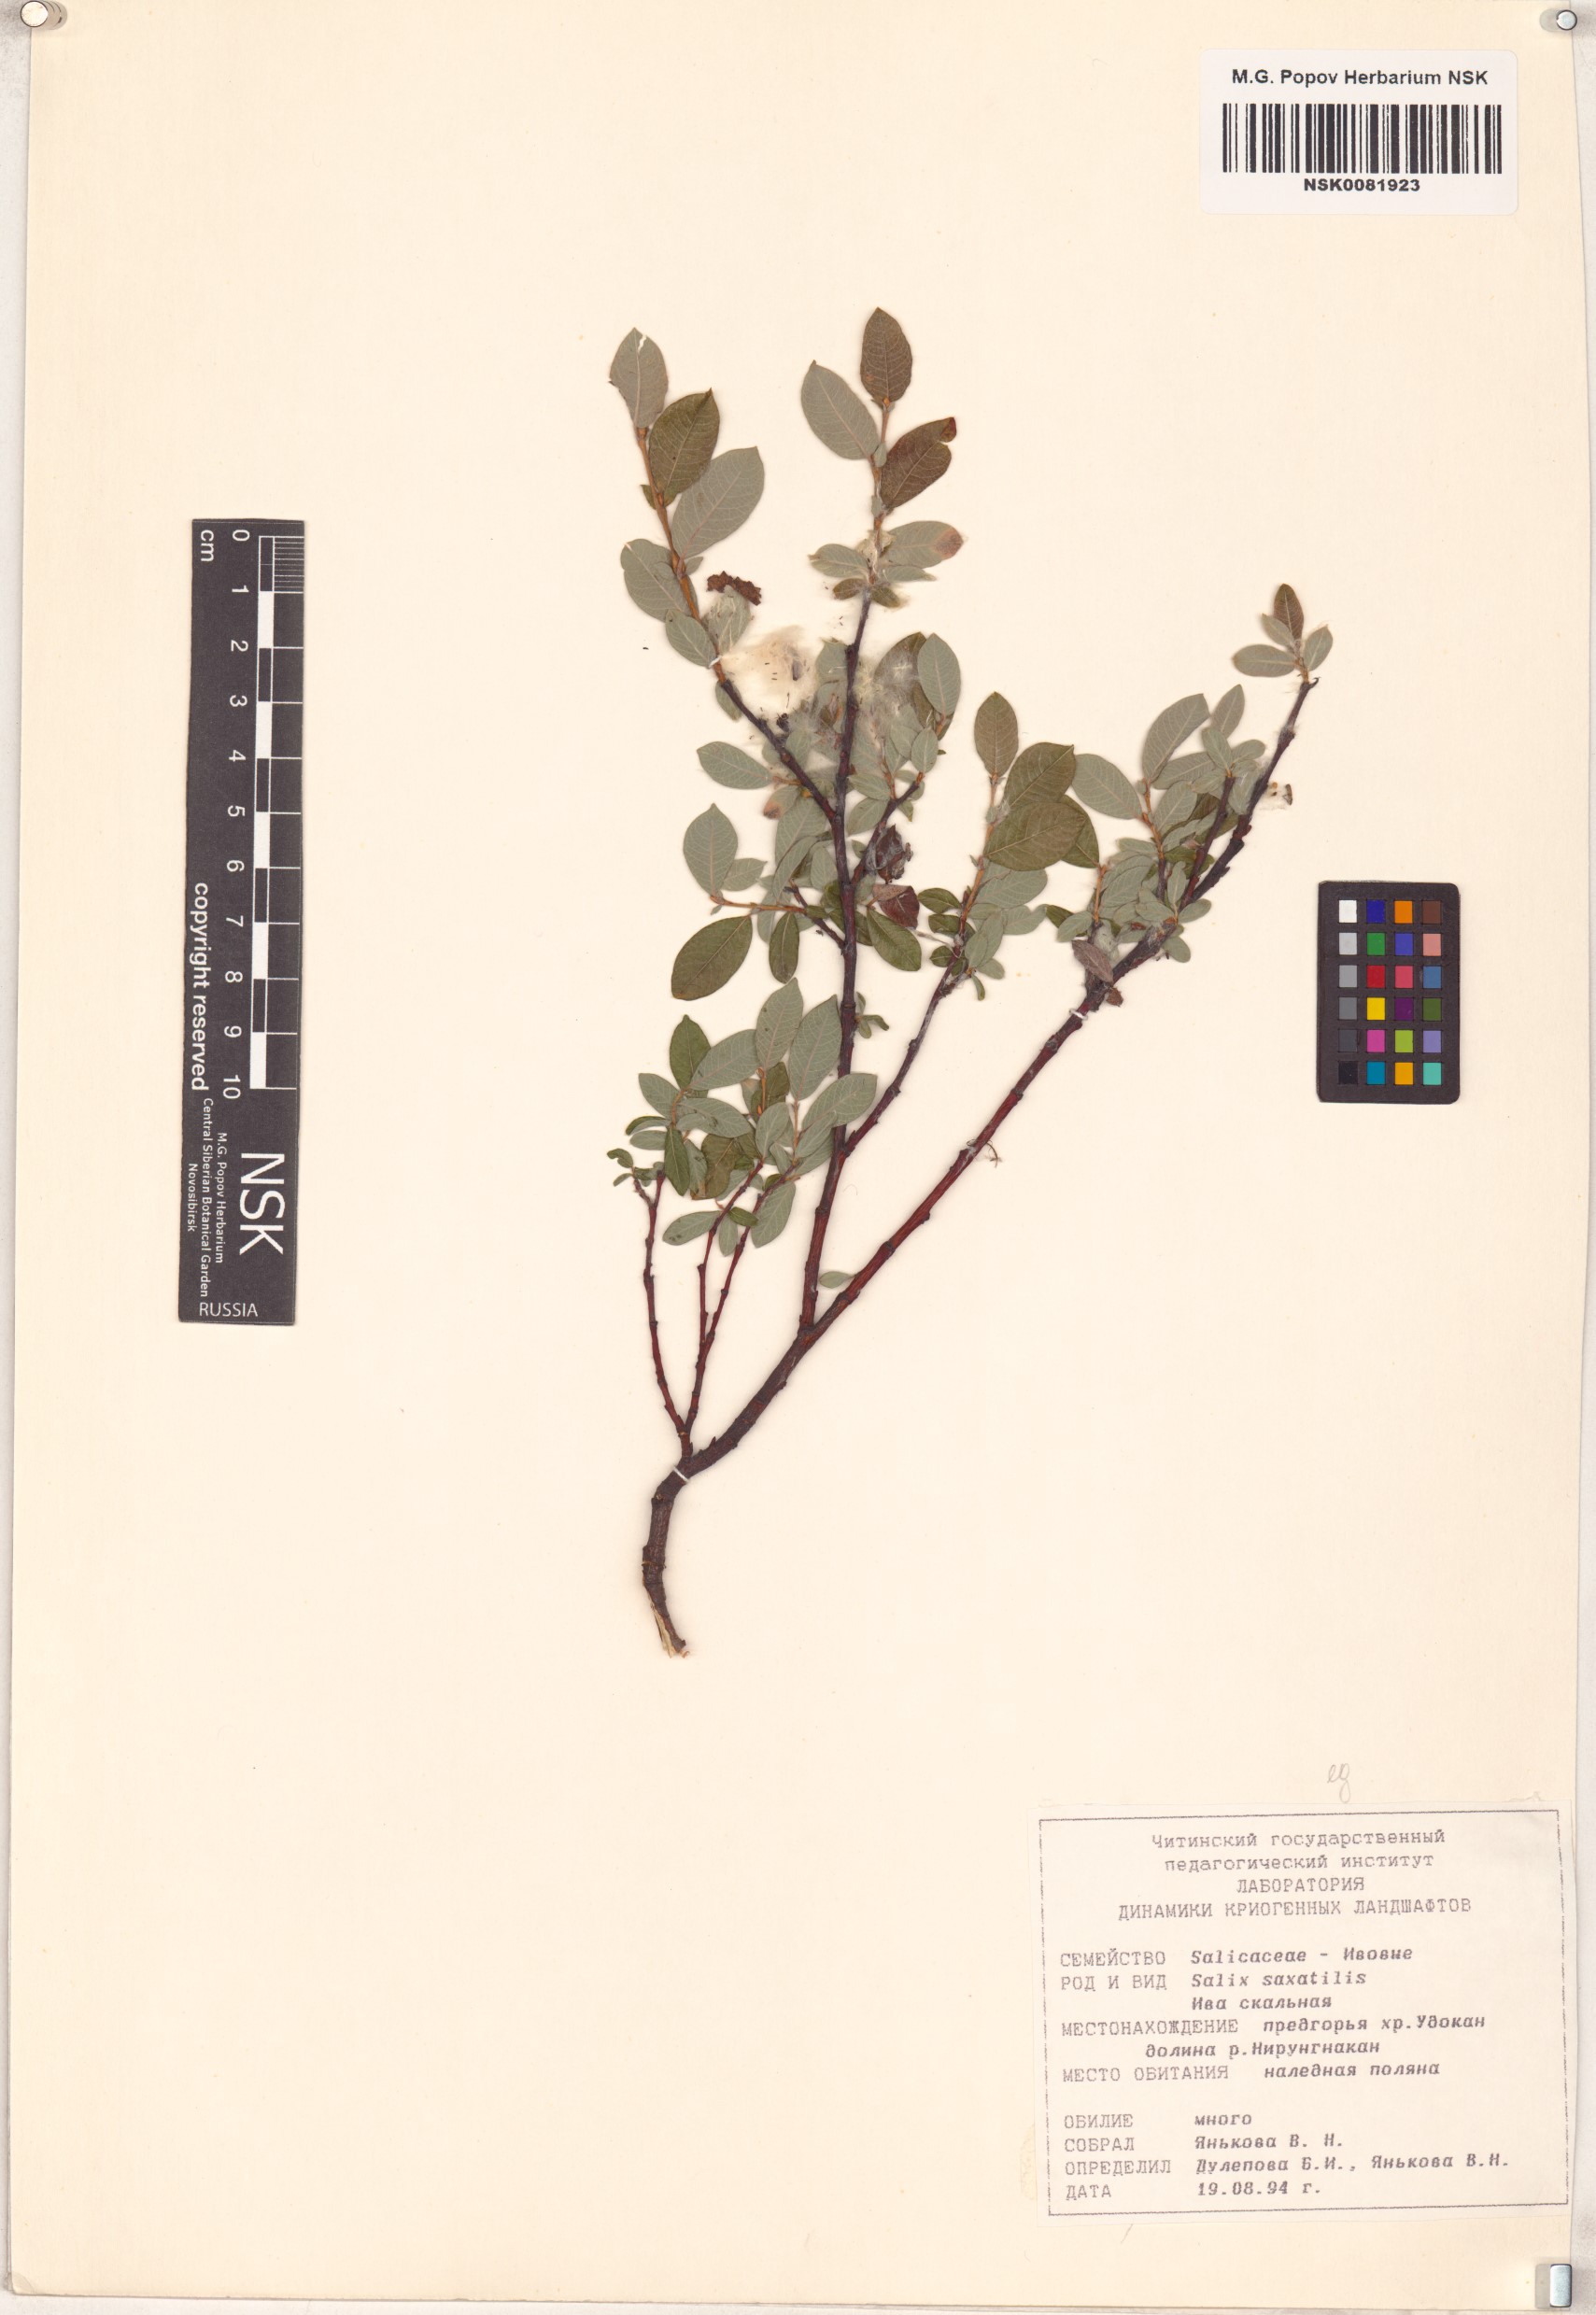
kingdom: Plantae
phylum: Tracheophyta
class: Magnoliopsida
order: Malpighiales
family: Salicaceae
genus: Salix
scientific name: Salix saxatilis
